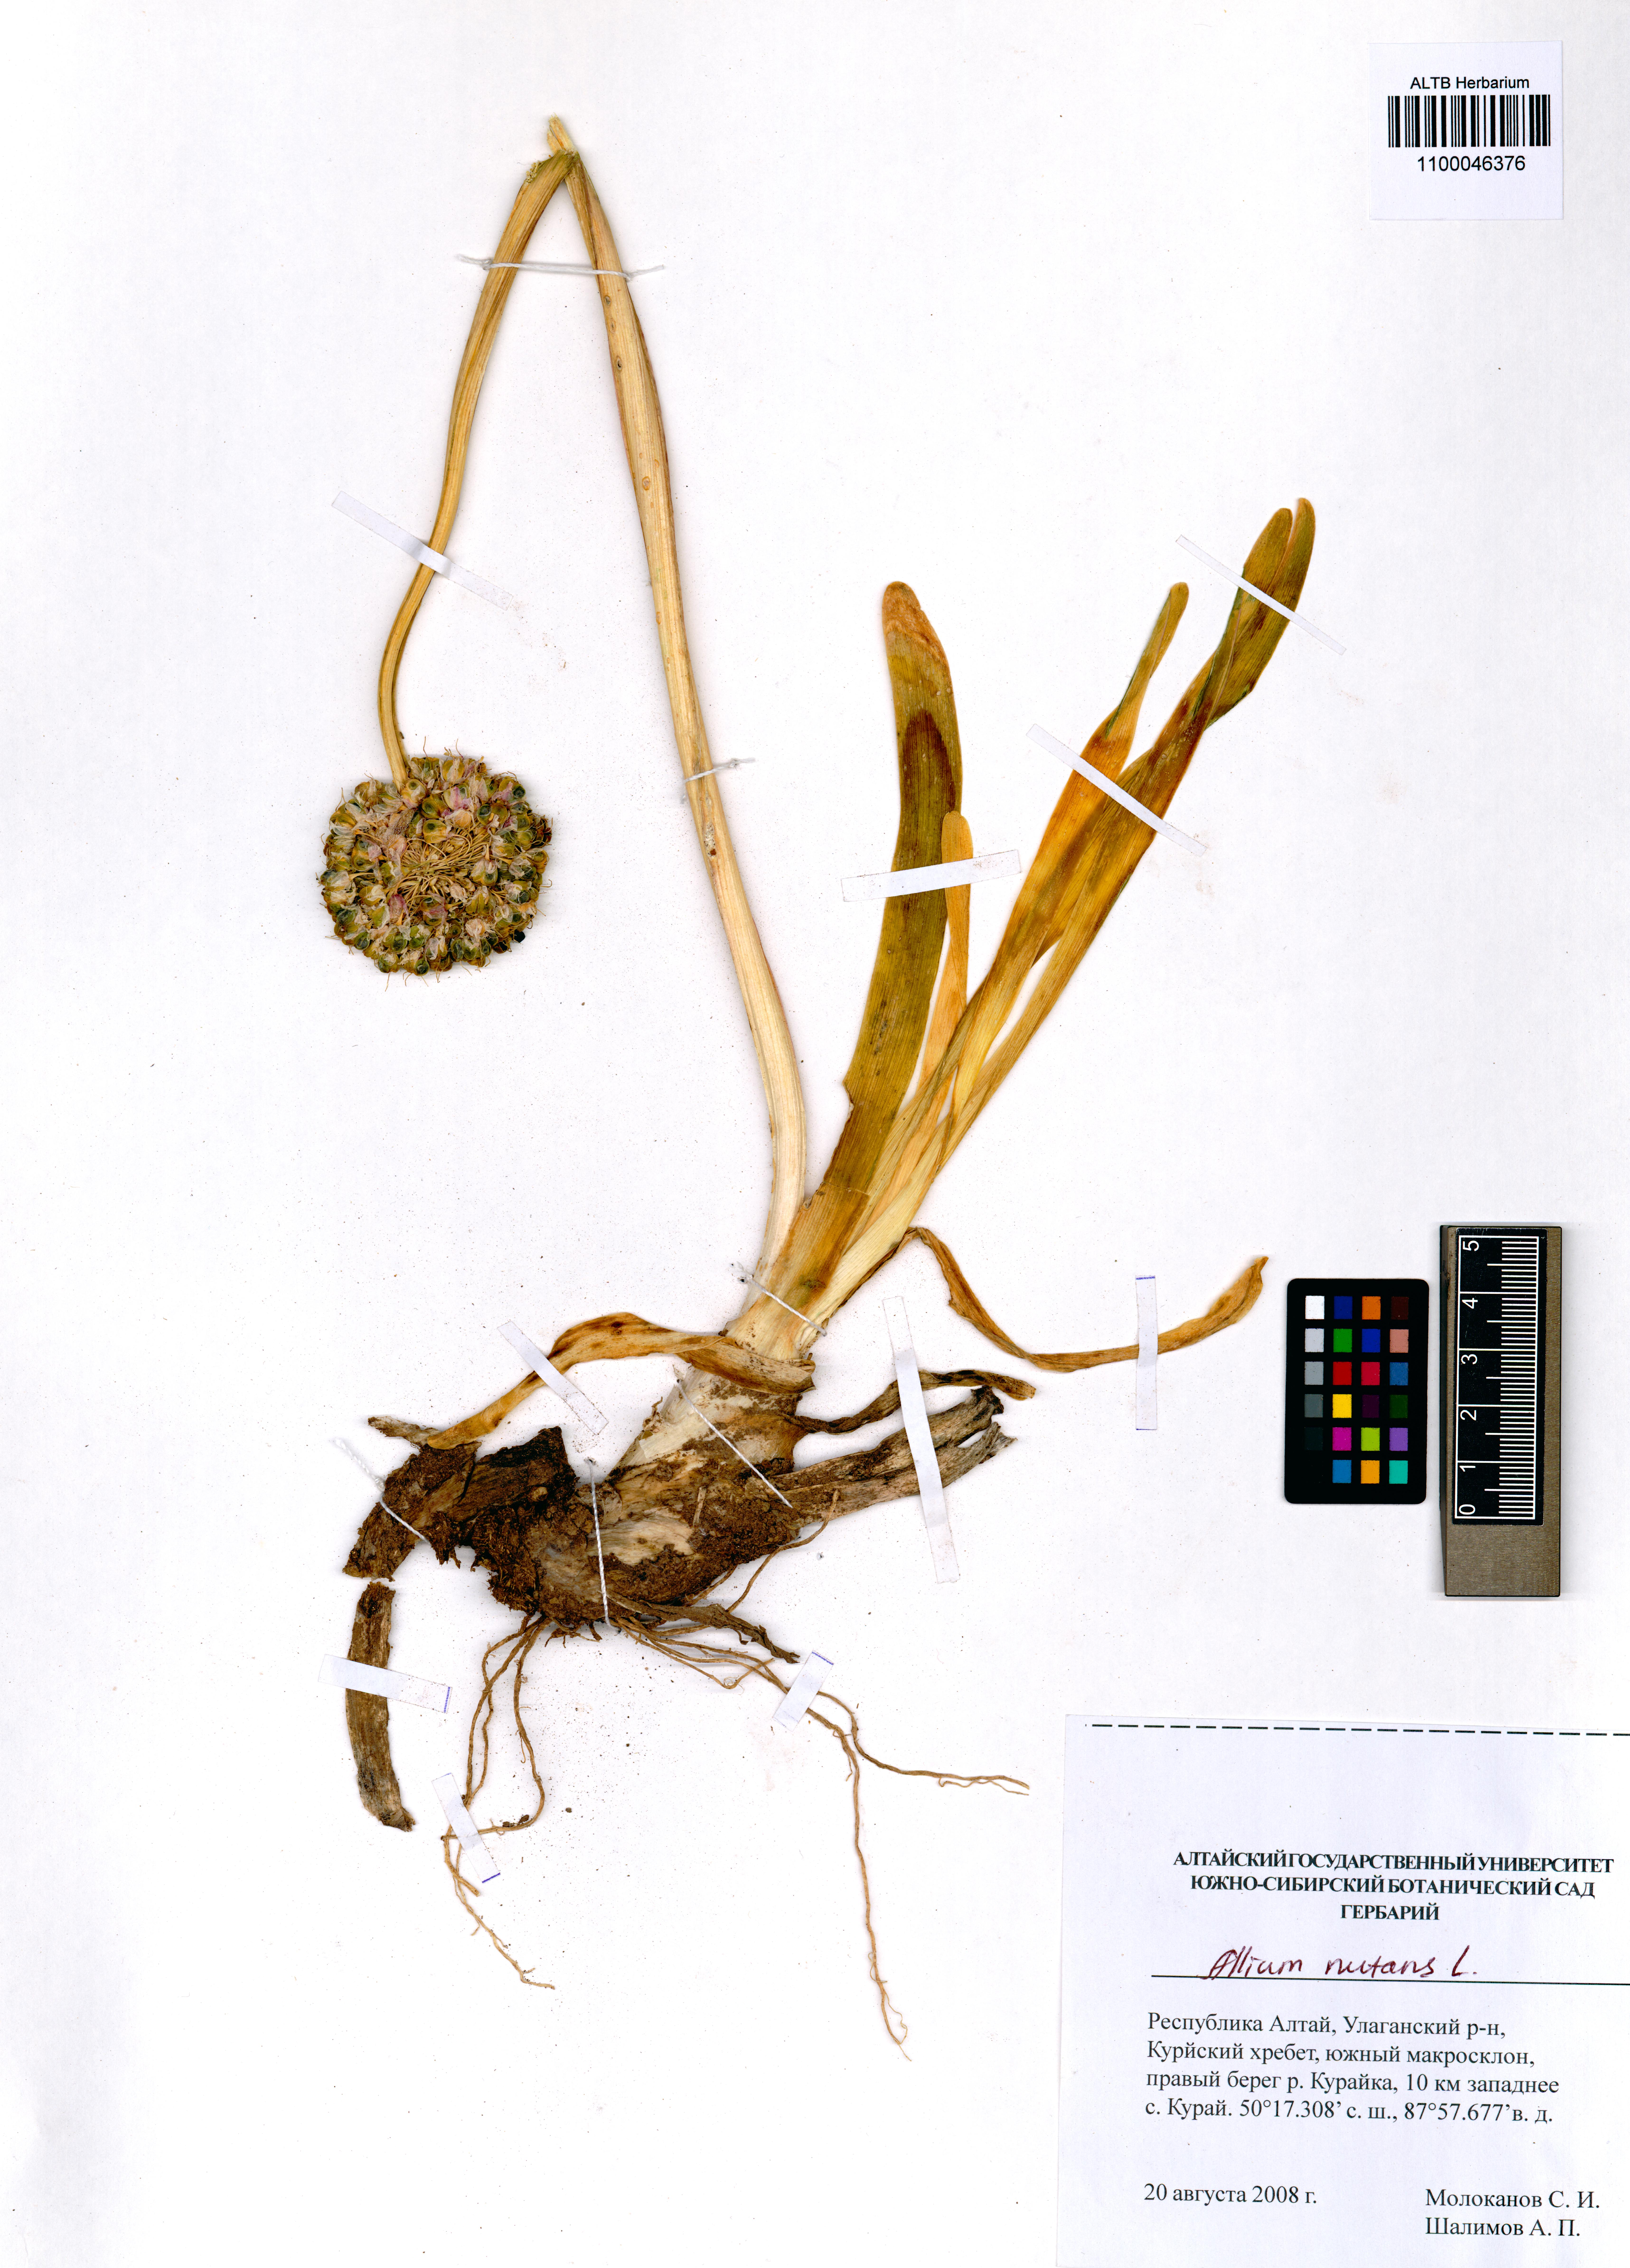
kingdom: Plantae
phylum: Tracheophyta
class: Liliopsida
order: Asparagales
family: Amaryllidaceae
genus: Allium
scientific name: Allium nutans
